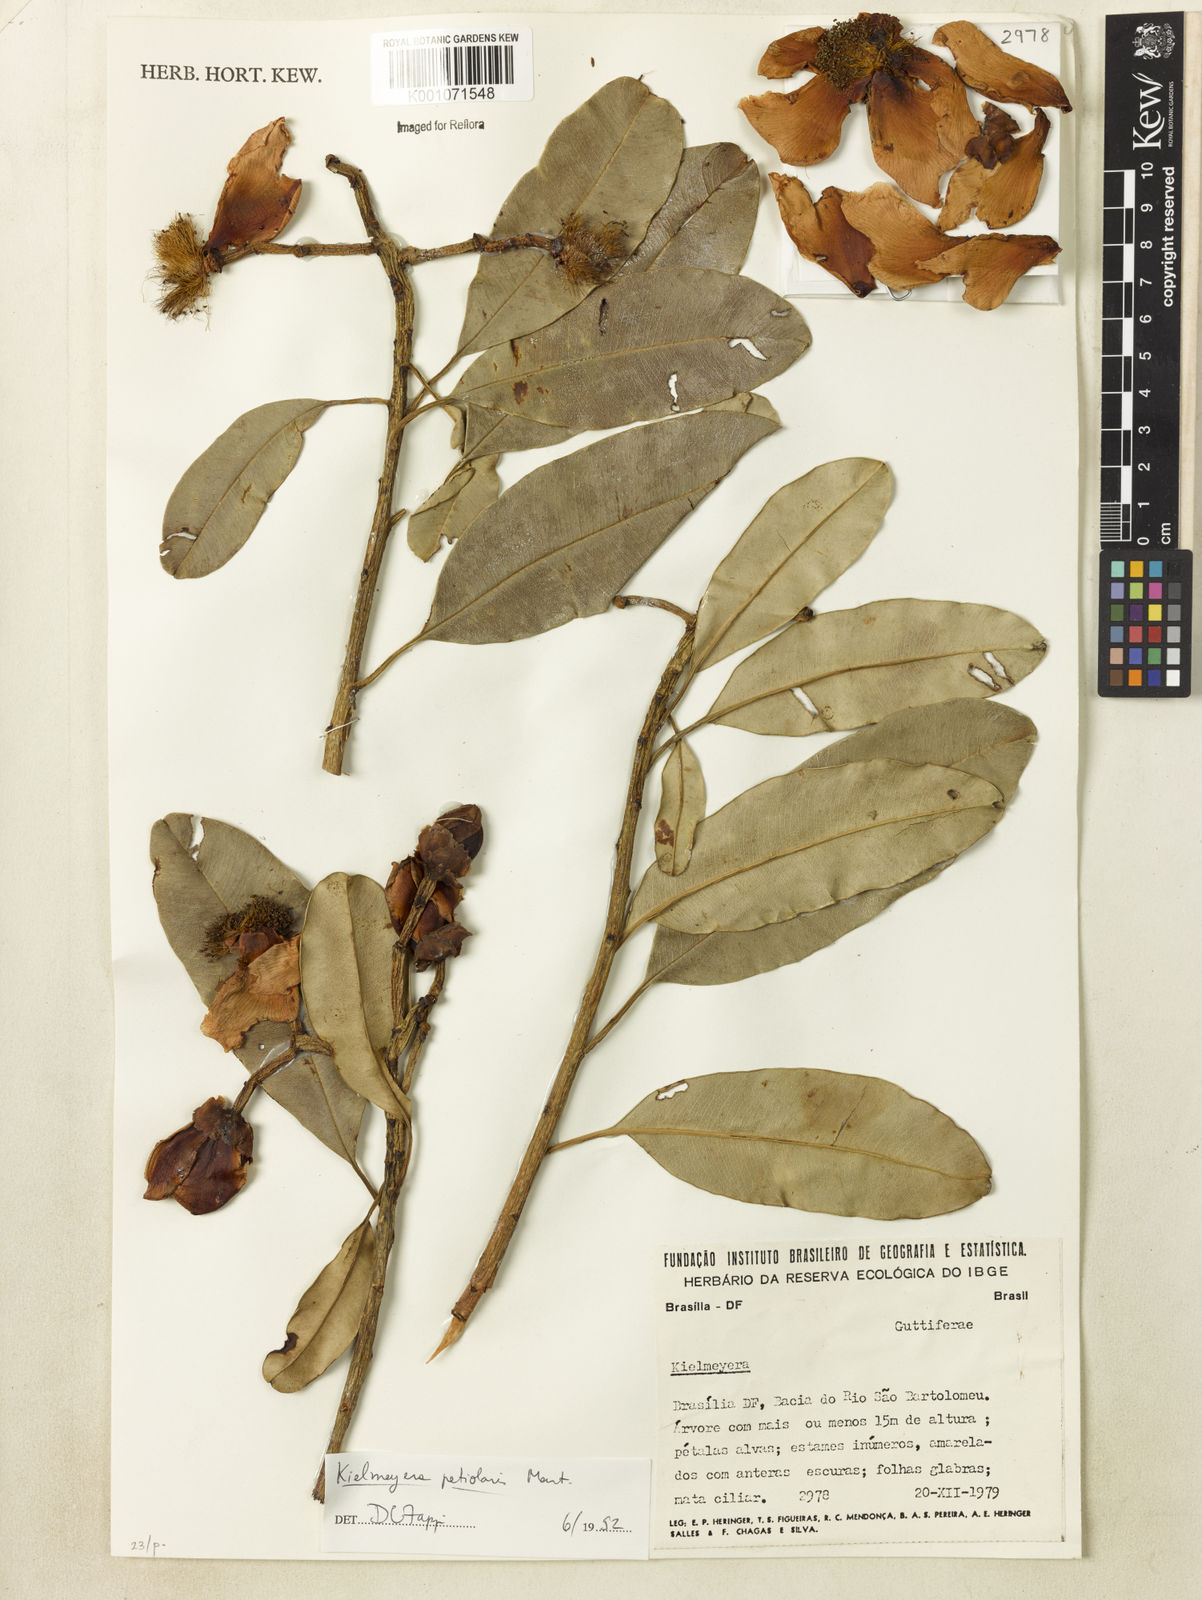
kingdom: Plantae
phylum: Tracheophyta
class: Magnoliopsida
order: Malpighiales
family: Calophyllaceae
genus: Kielmeyera
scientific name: Kielmeyera petiolaris
